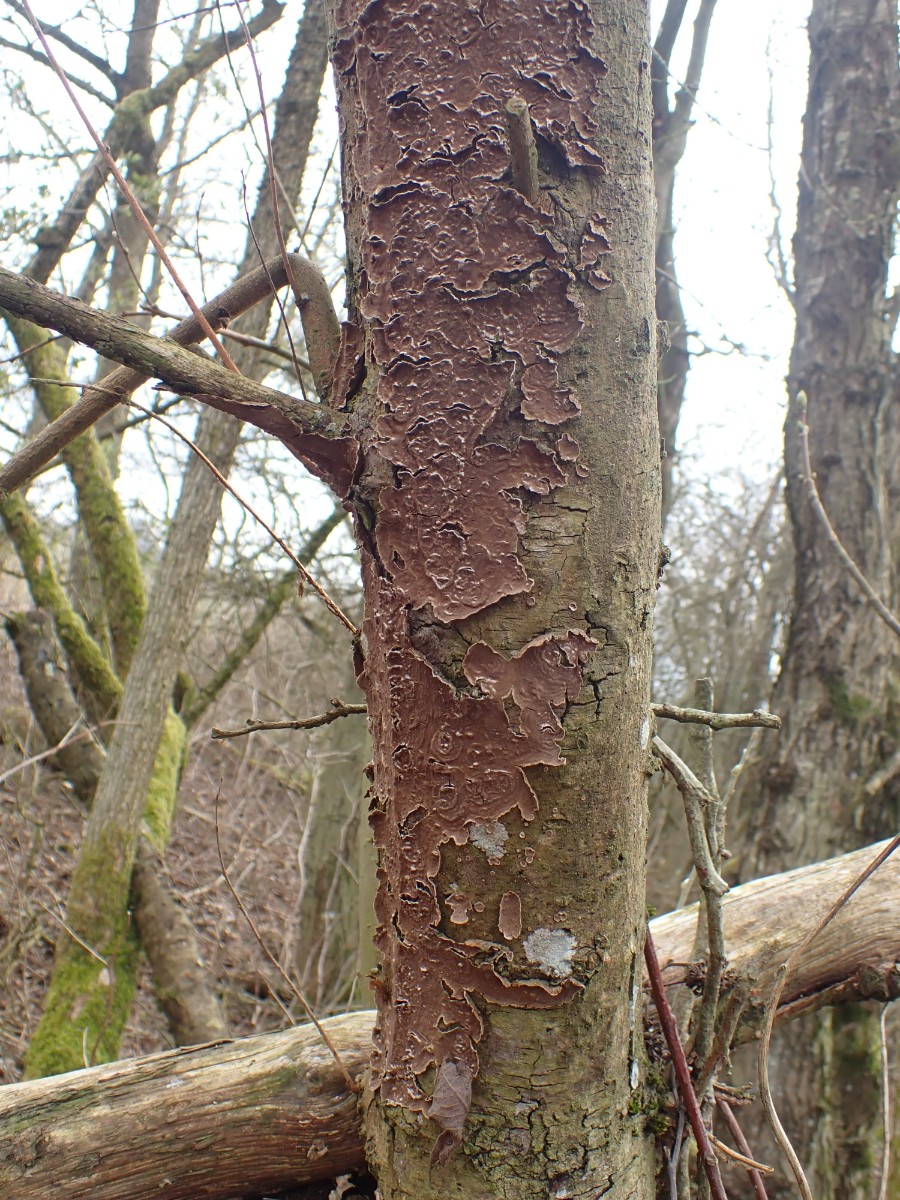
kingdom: Fungi
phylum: Basidiomycota
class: Agaricomycetes
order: Hymenochaetales
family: Hymenochaetaceae
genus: Hydnoporia
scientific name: Hydnoporia tabacina
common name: tobaksbrun ruslædersvamp
